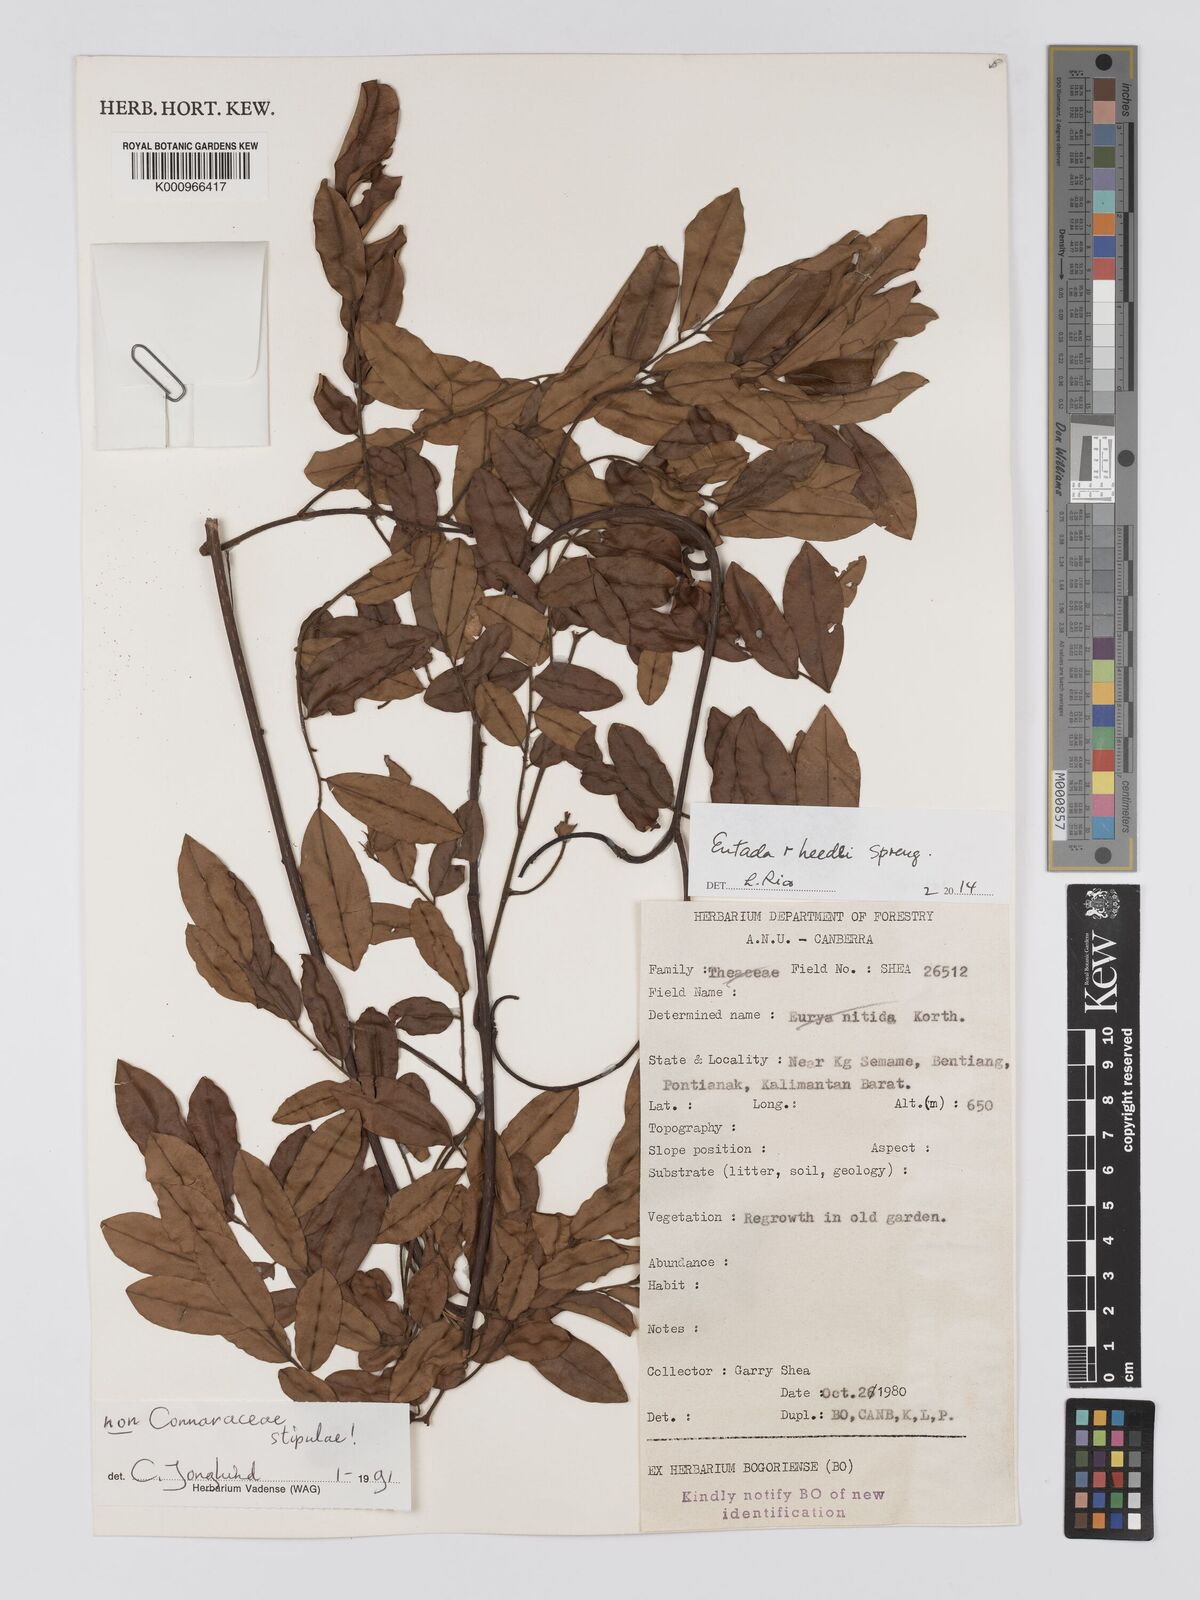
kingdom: Plantae
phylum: Tracheophyta
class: Magnoliopsida
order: Fabales
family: Fabaceae
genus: Entada
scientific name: Entada rheedei
